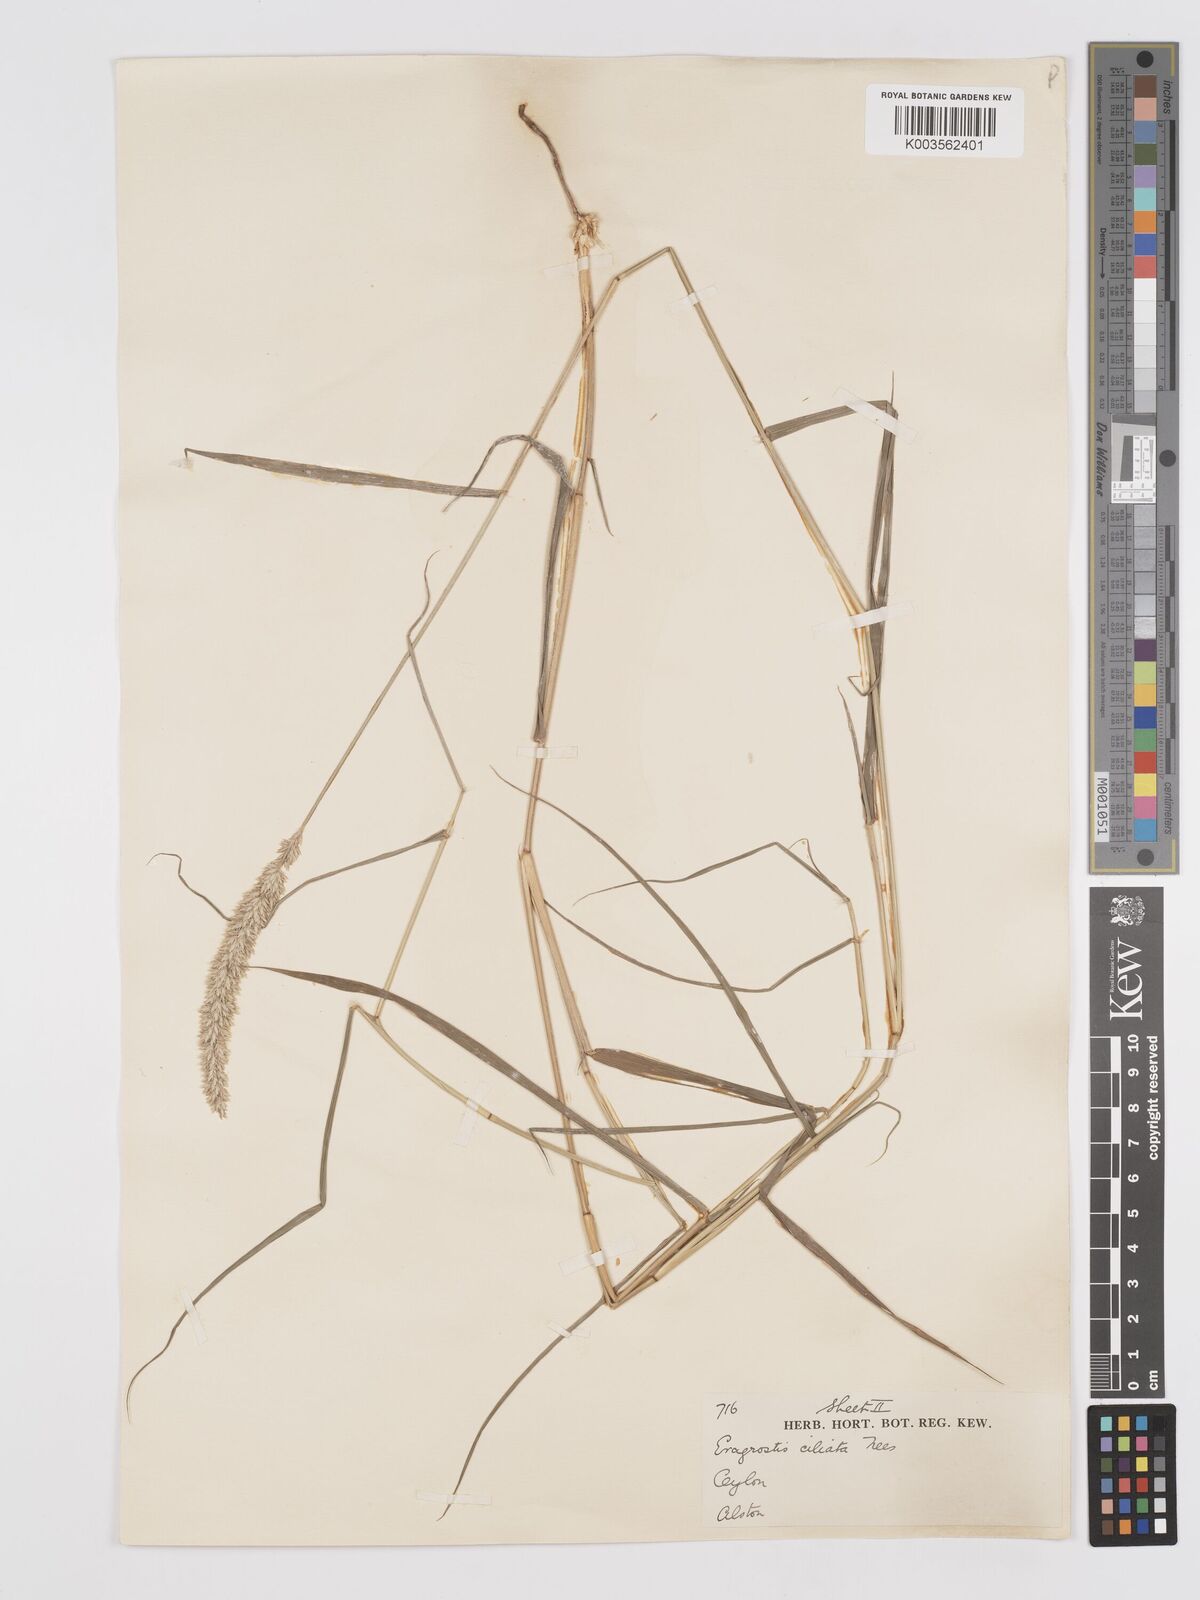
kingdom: Plantae
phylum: Tracheophyta
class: Liliopsida
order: Poales
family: Poaceae
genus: Eragrostis
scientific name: Eragrostis ciliata
